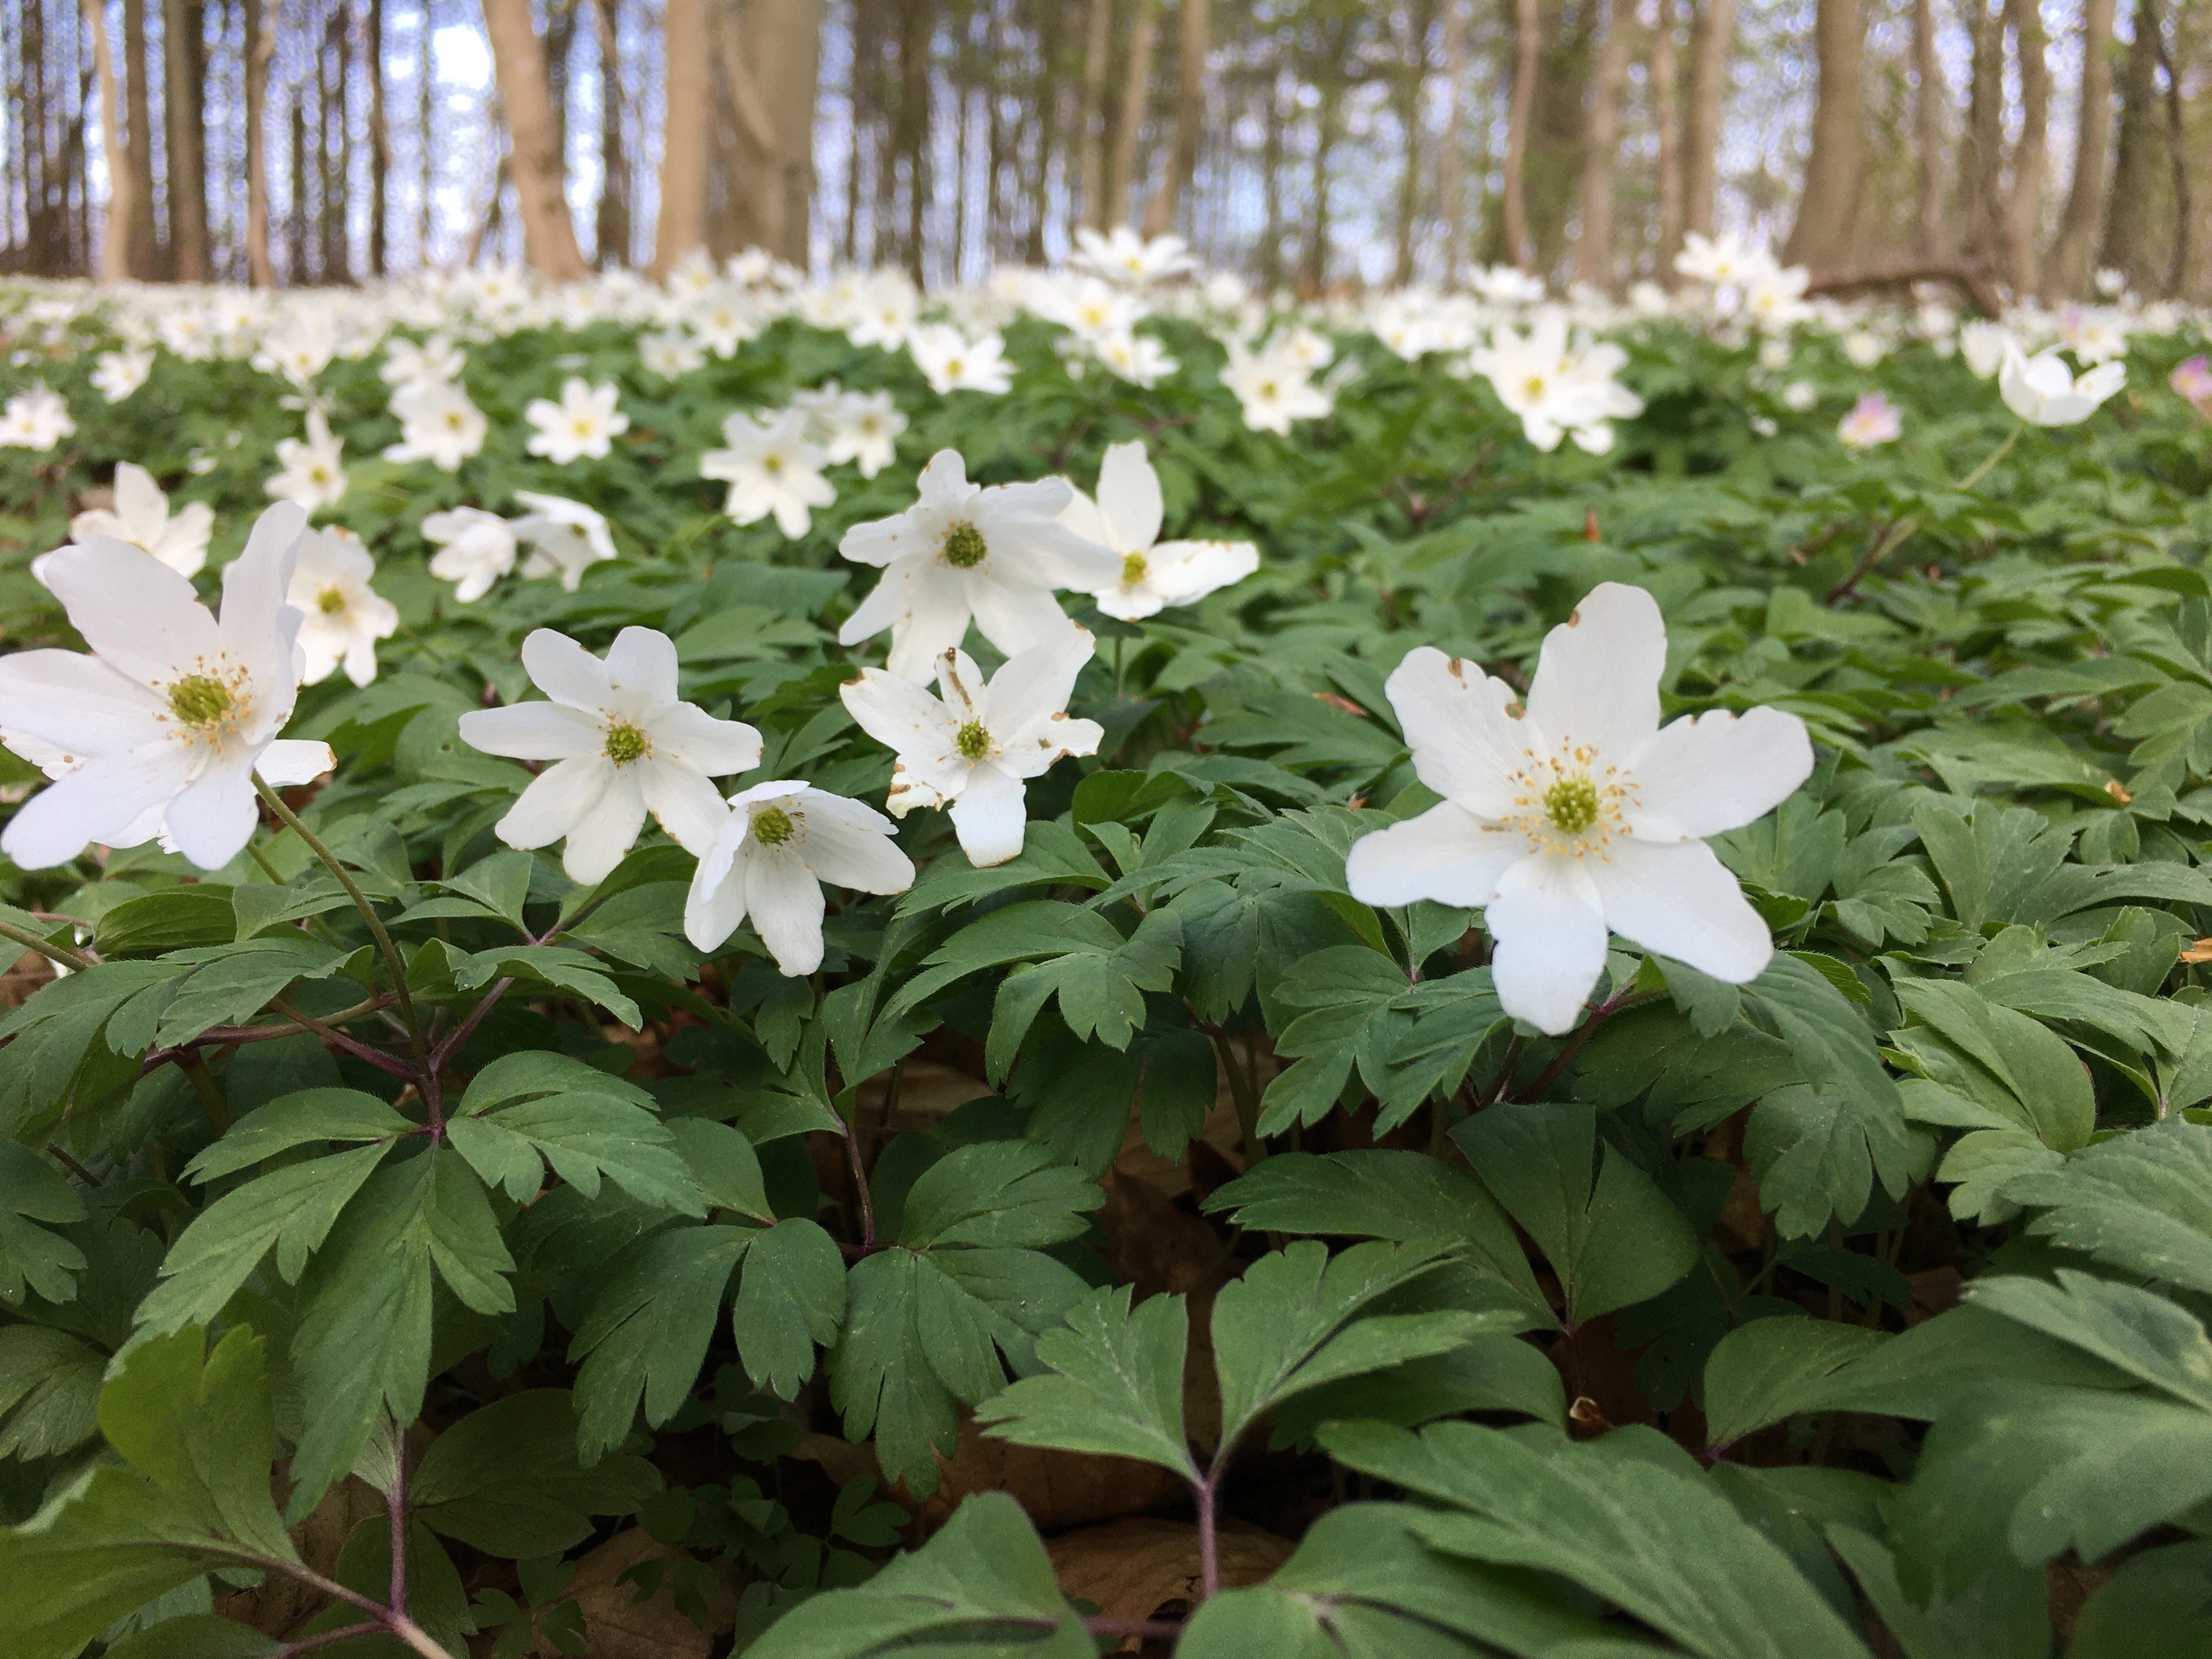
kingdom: Plantae
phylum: Tracheophyta
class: Magnoliopsida
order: Ranunculales
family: Ranunculaceae
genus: Anemone
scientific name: Anemone nemorosa
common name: Hvid anemone
